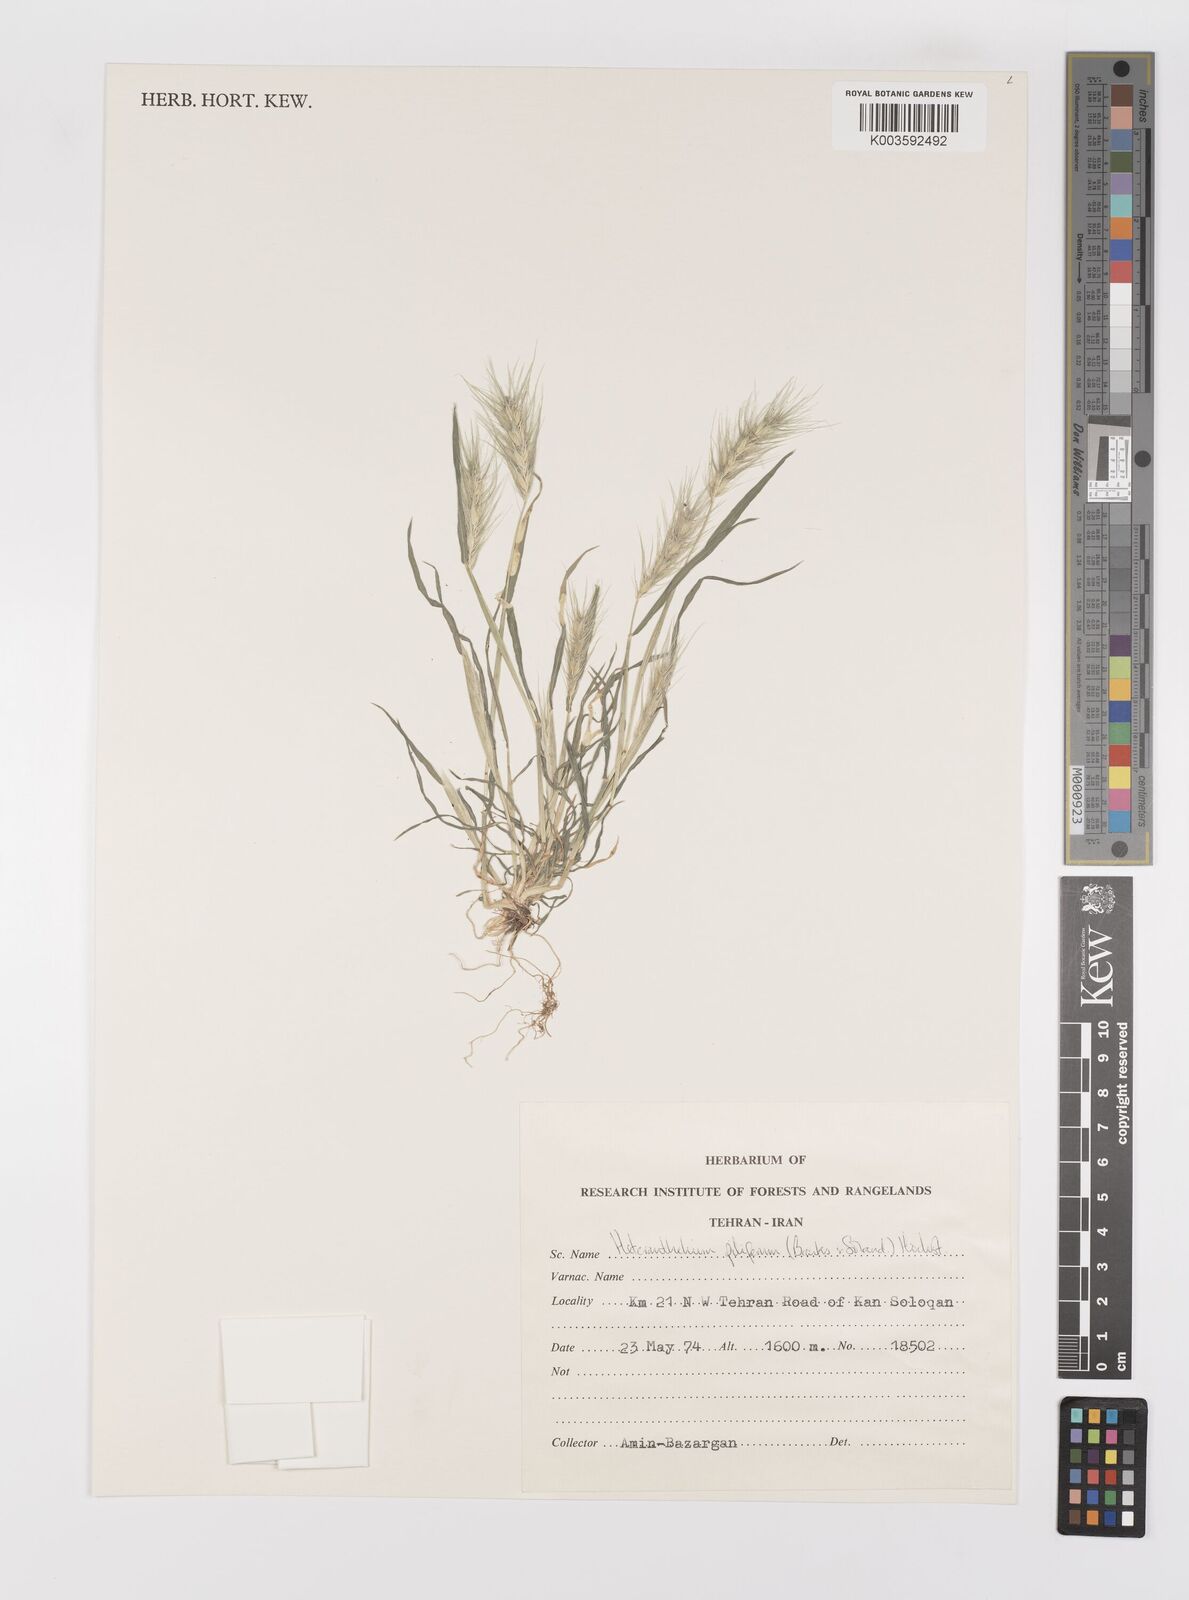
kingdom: Plantae
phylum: Tracheophyta
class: Liliopsida
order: Poales
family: Poaceae
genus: Heteranthelium
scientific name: Heteranthelium piliferum
